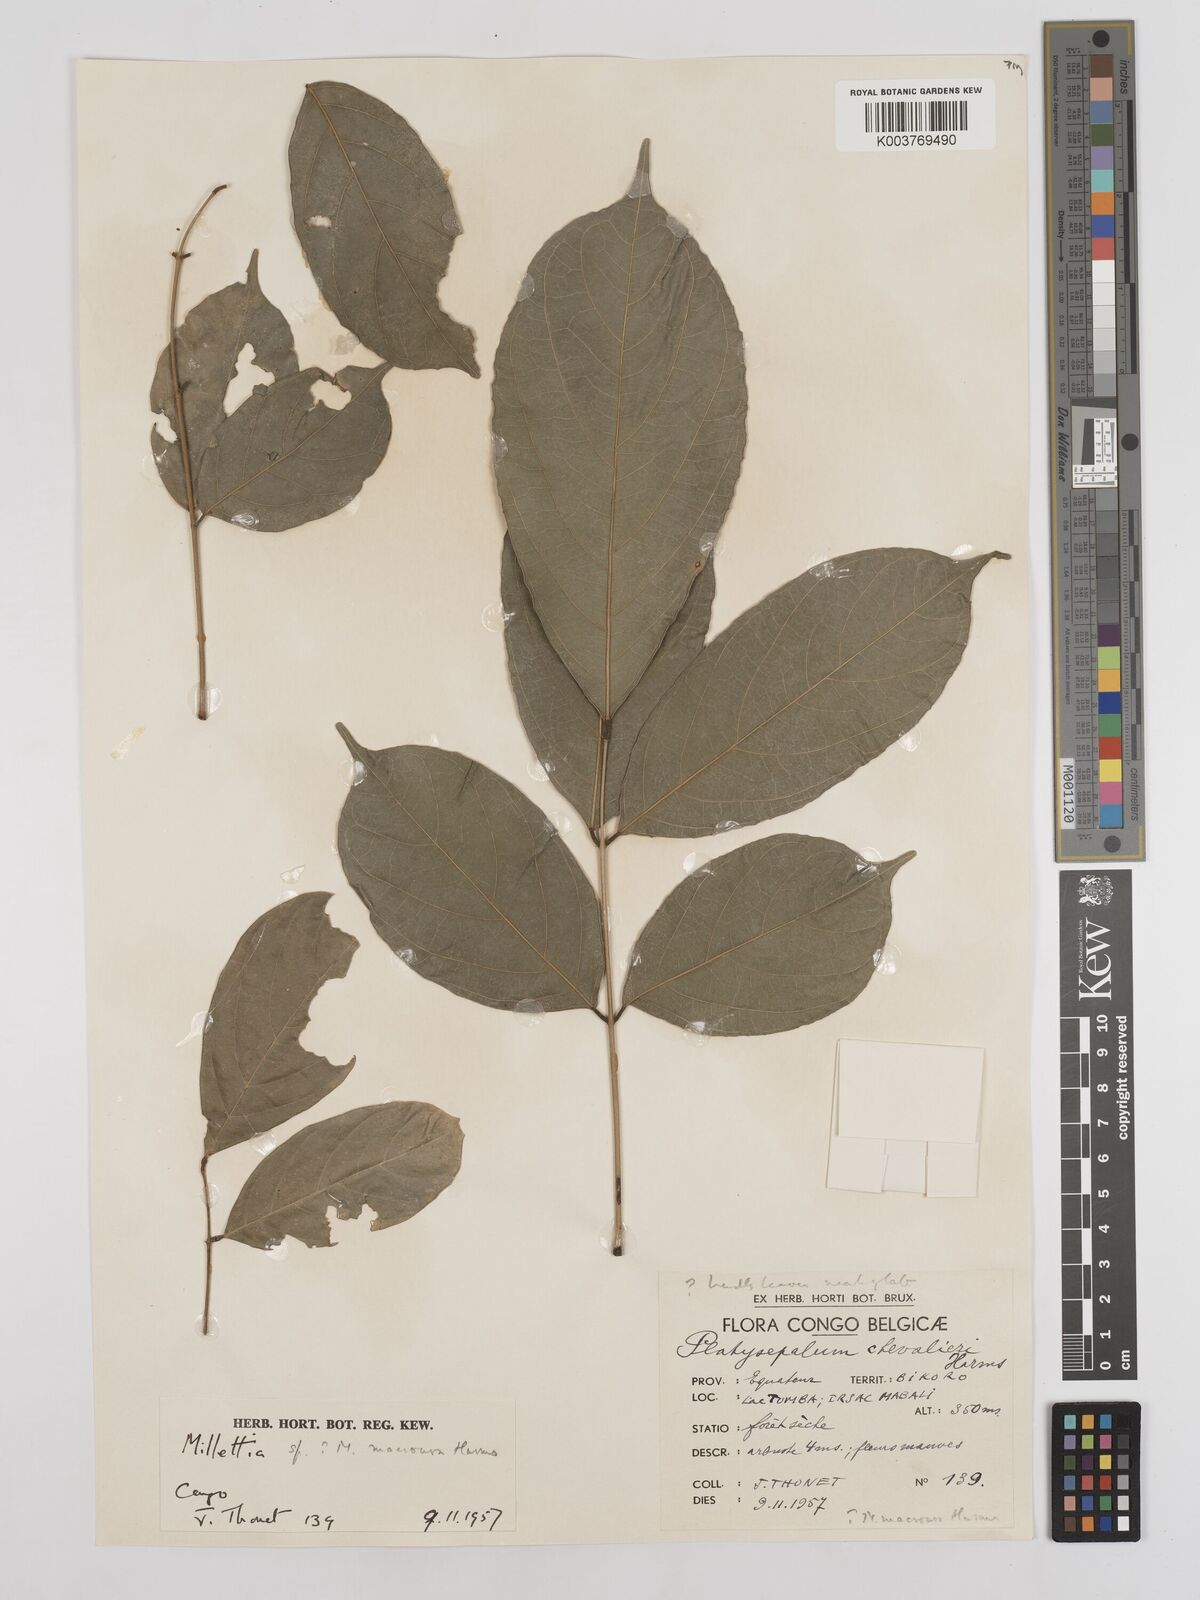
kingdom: Plantae
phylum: Tracheophyta
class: Magnoliopsida
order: Fabales
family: Fabaceae
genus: Millettia
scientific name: Millettia macroura
